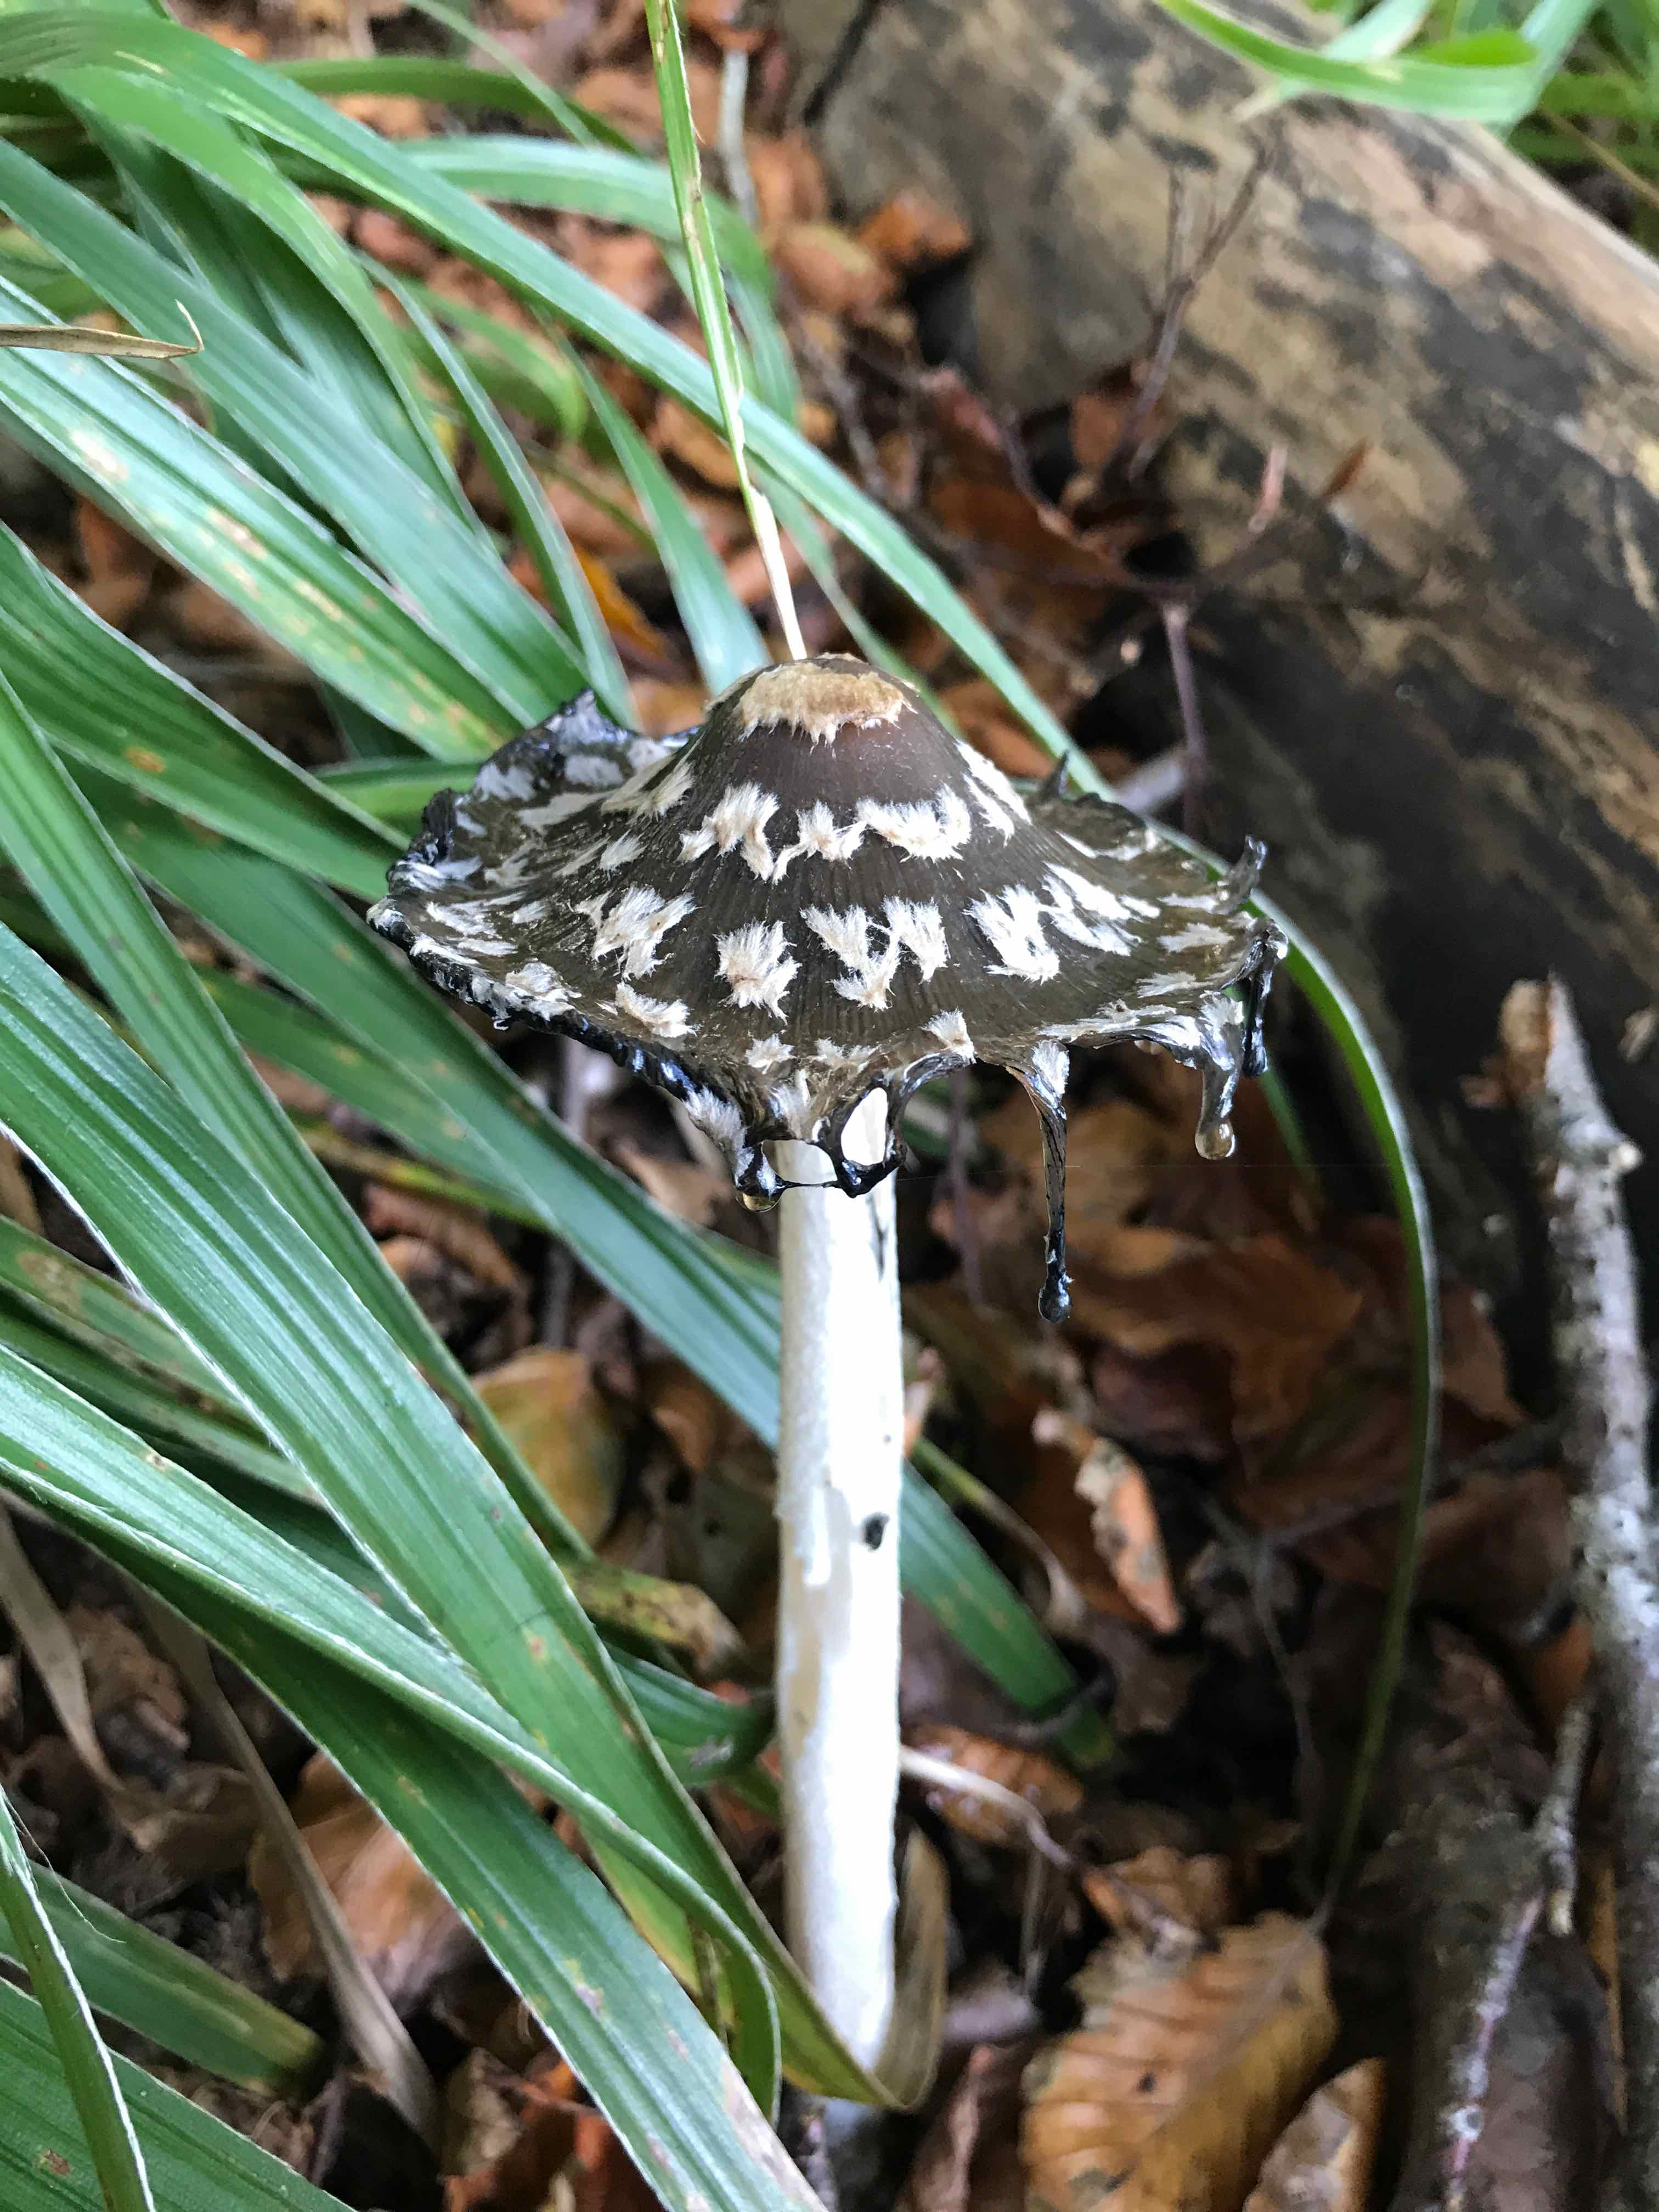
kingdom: Fungi
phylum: Basidiomycota
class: Agaricomycetes
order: Agaricales
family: Psathyrellaceae
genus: Coprinopsis
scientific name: Coprinopsis picacea
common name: skade-blækhat
